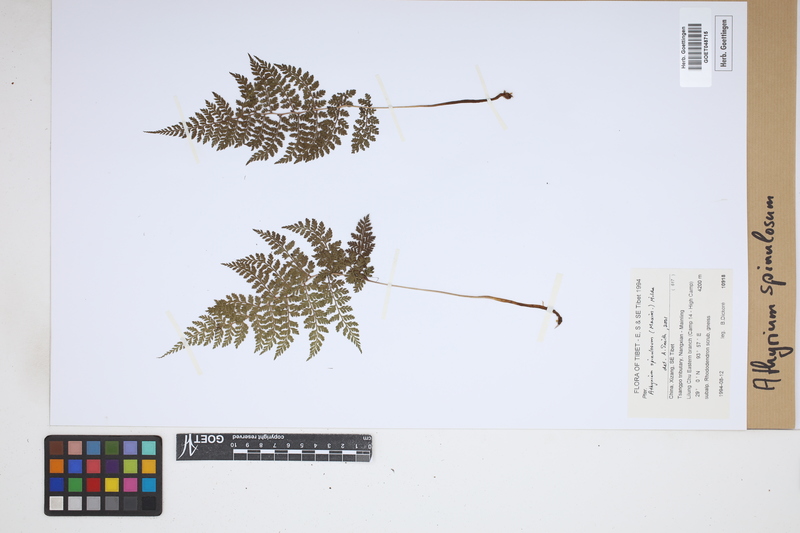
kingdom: Plantae
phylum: Tracheophyta
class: Polypodiopsida
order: Polypodiales
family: Athyriaceae
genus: Athyrium
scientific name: Athyrium spinulosum
